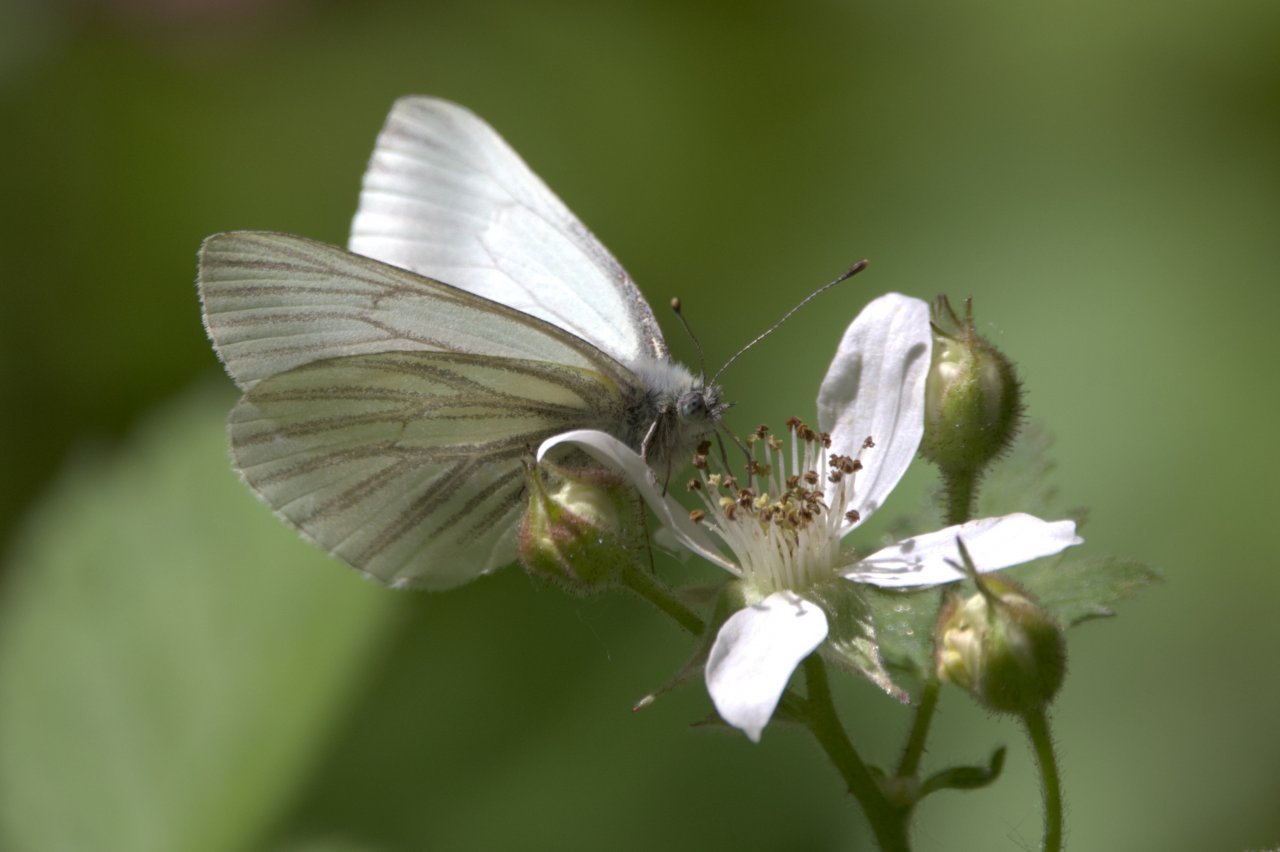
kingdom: Animalia
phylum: Arthropoda
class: Insecta
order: Lepidoptera
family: Pieridae
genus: Pieris
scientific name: Pieris marginalis
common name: Margined White
